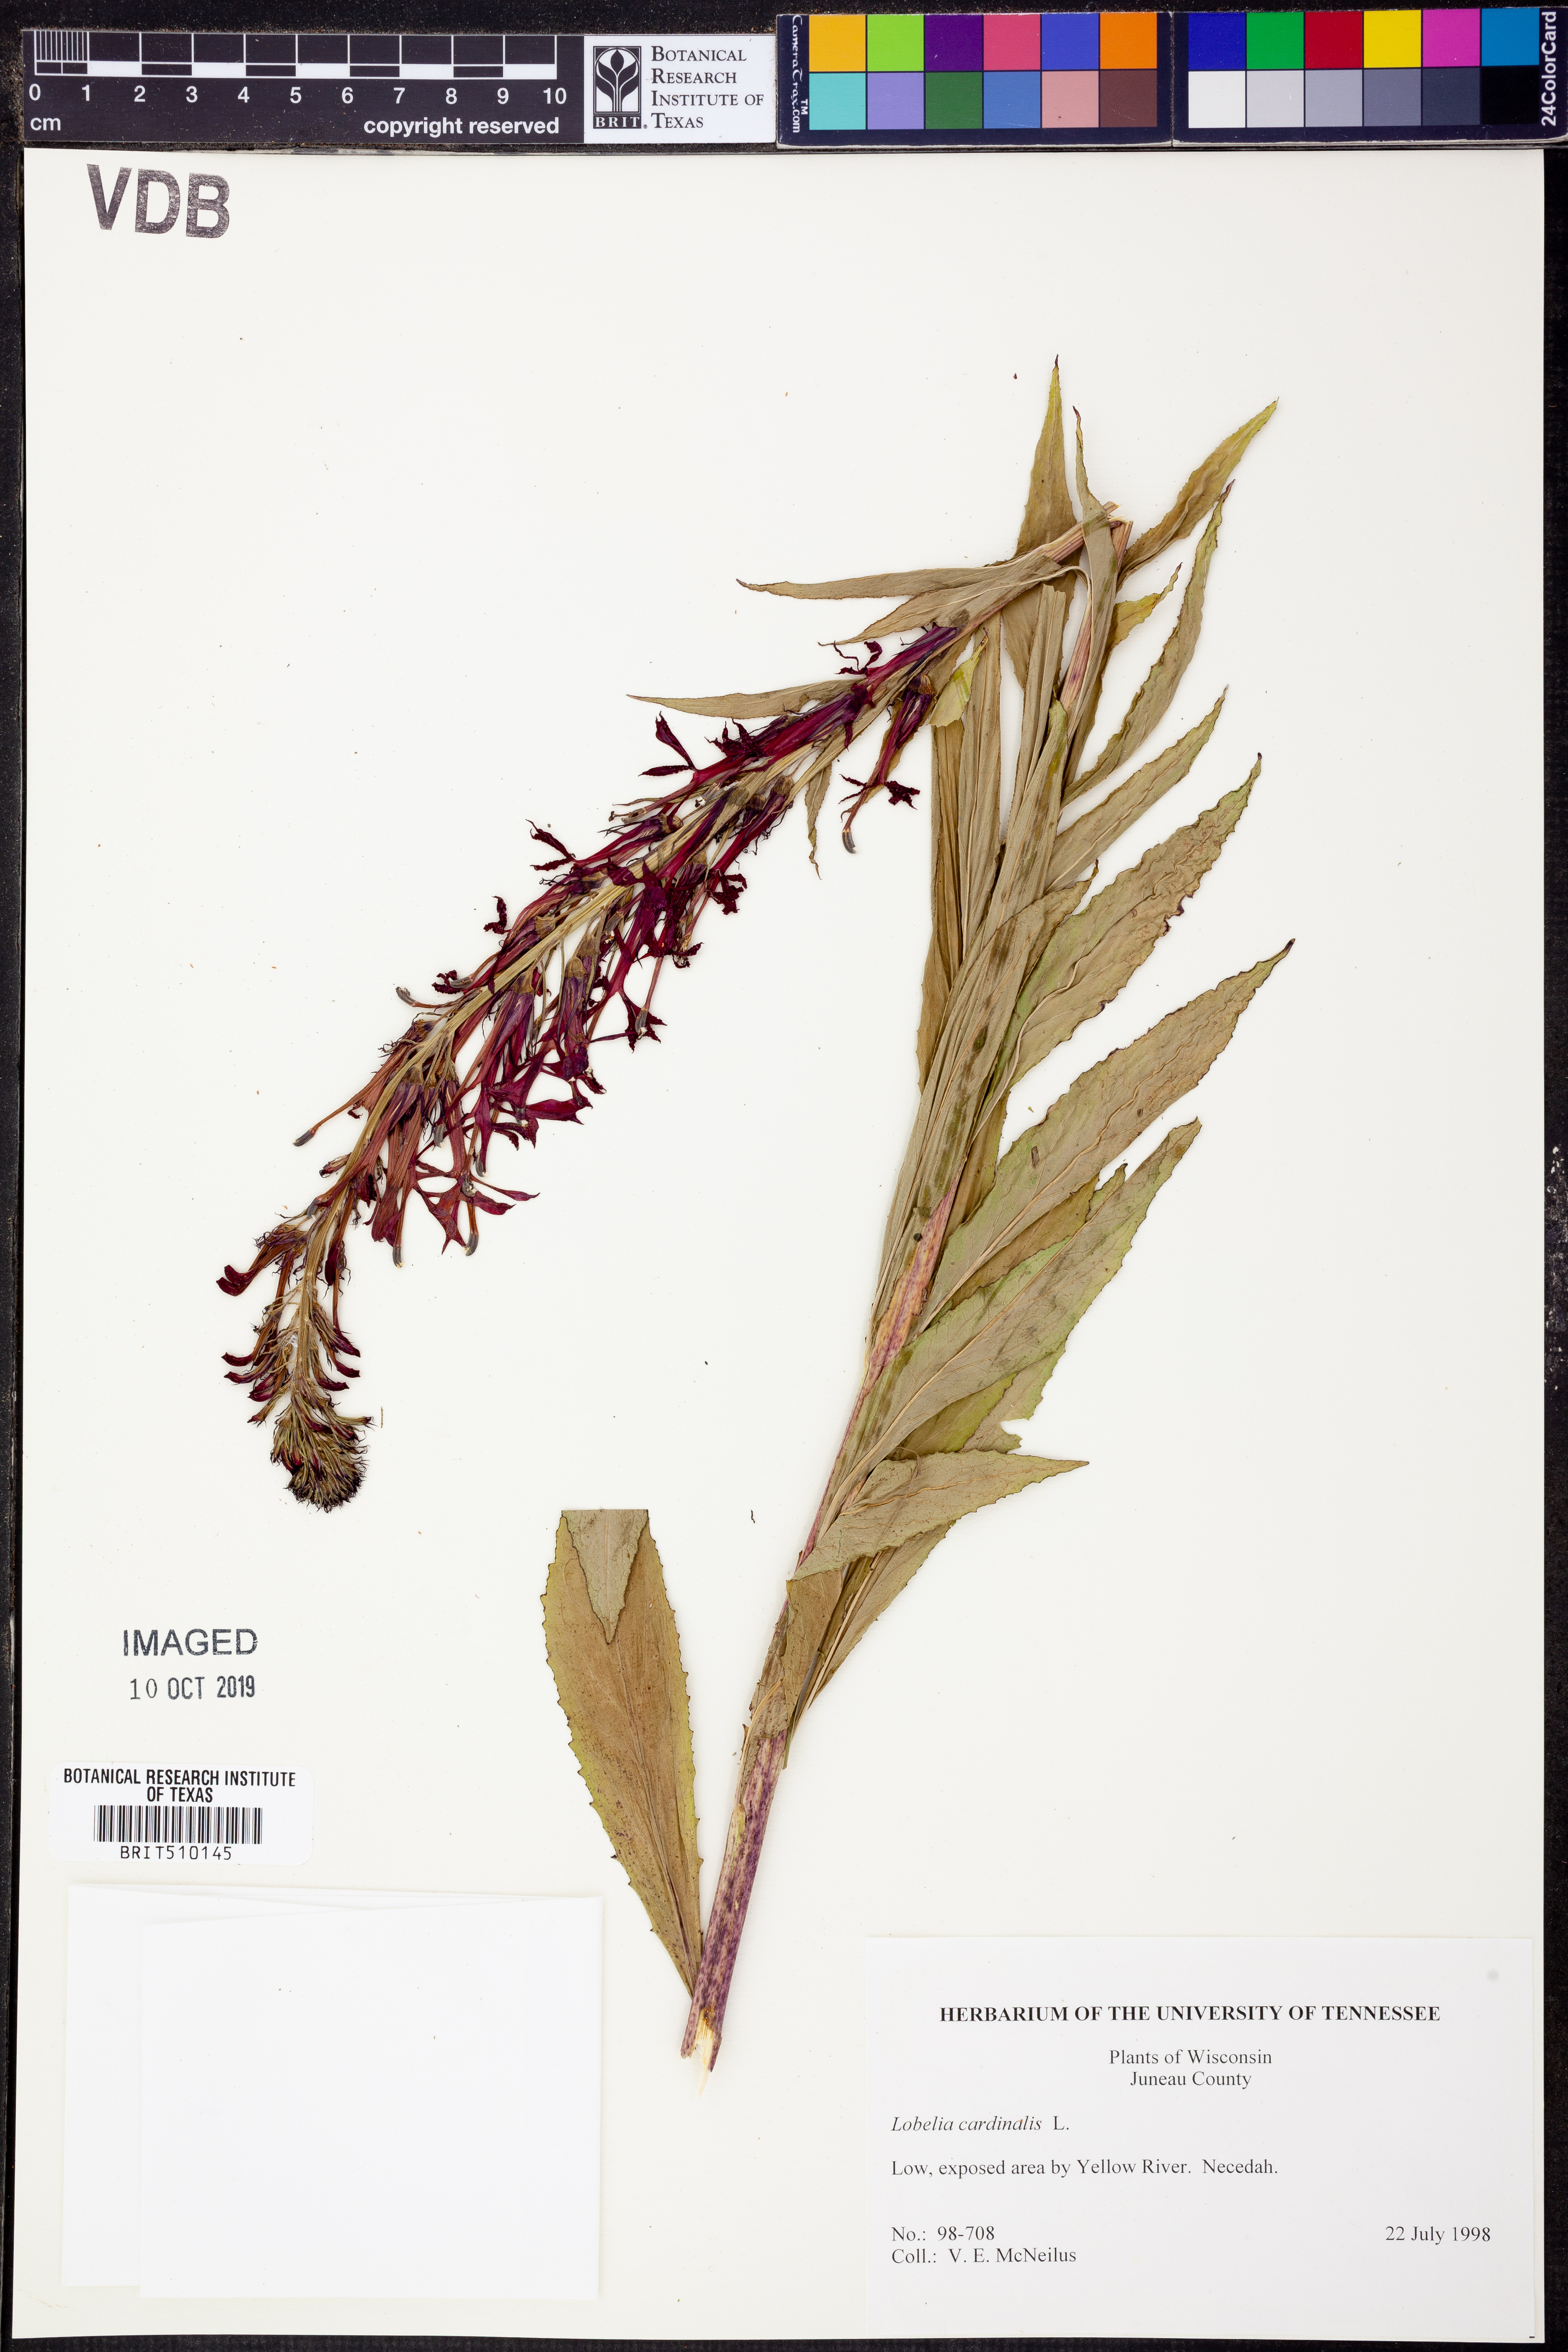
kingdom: Plantae
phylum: Tracheophyta
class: Magnoliopsida
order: Asterales
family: Campanulaceae
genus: Lobelia
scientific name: Lobelia cardinalis
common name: Cardinal flower
